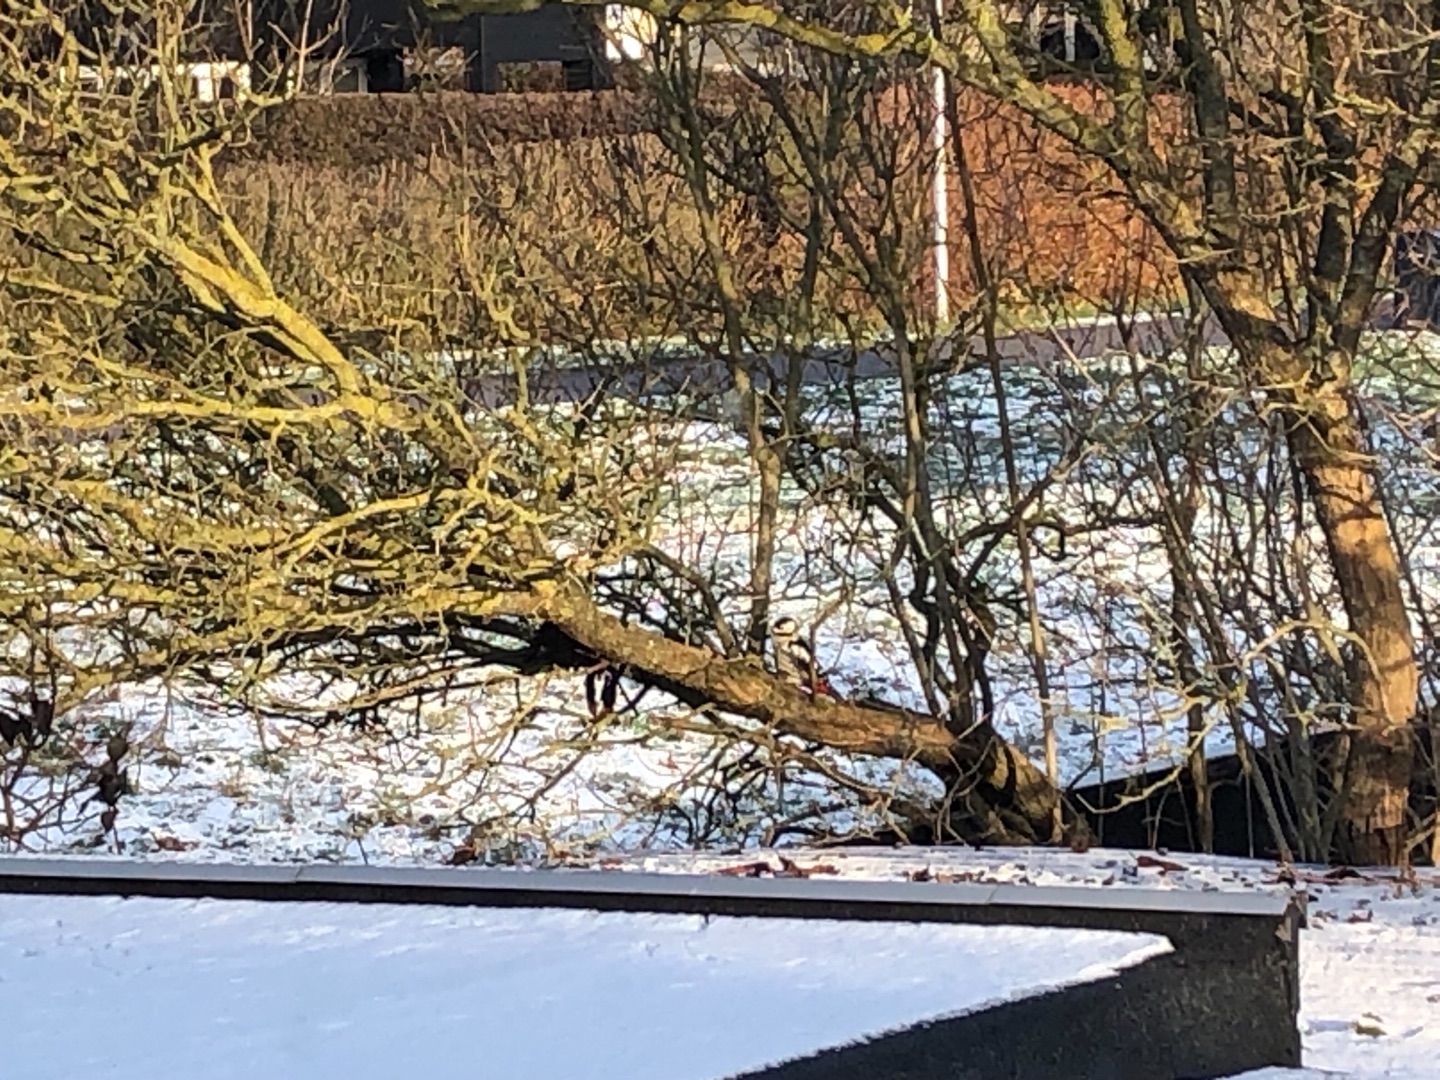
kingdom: Animalia
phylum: Chordata
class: Aves
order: Piciformes
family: Picidae
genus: Dendrocopos
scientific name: Dendrocopos major
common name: Stor flagspætte
